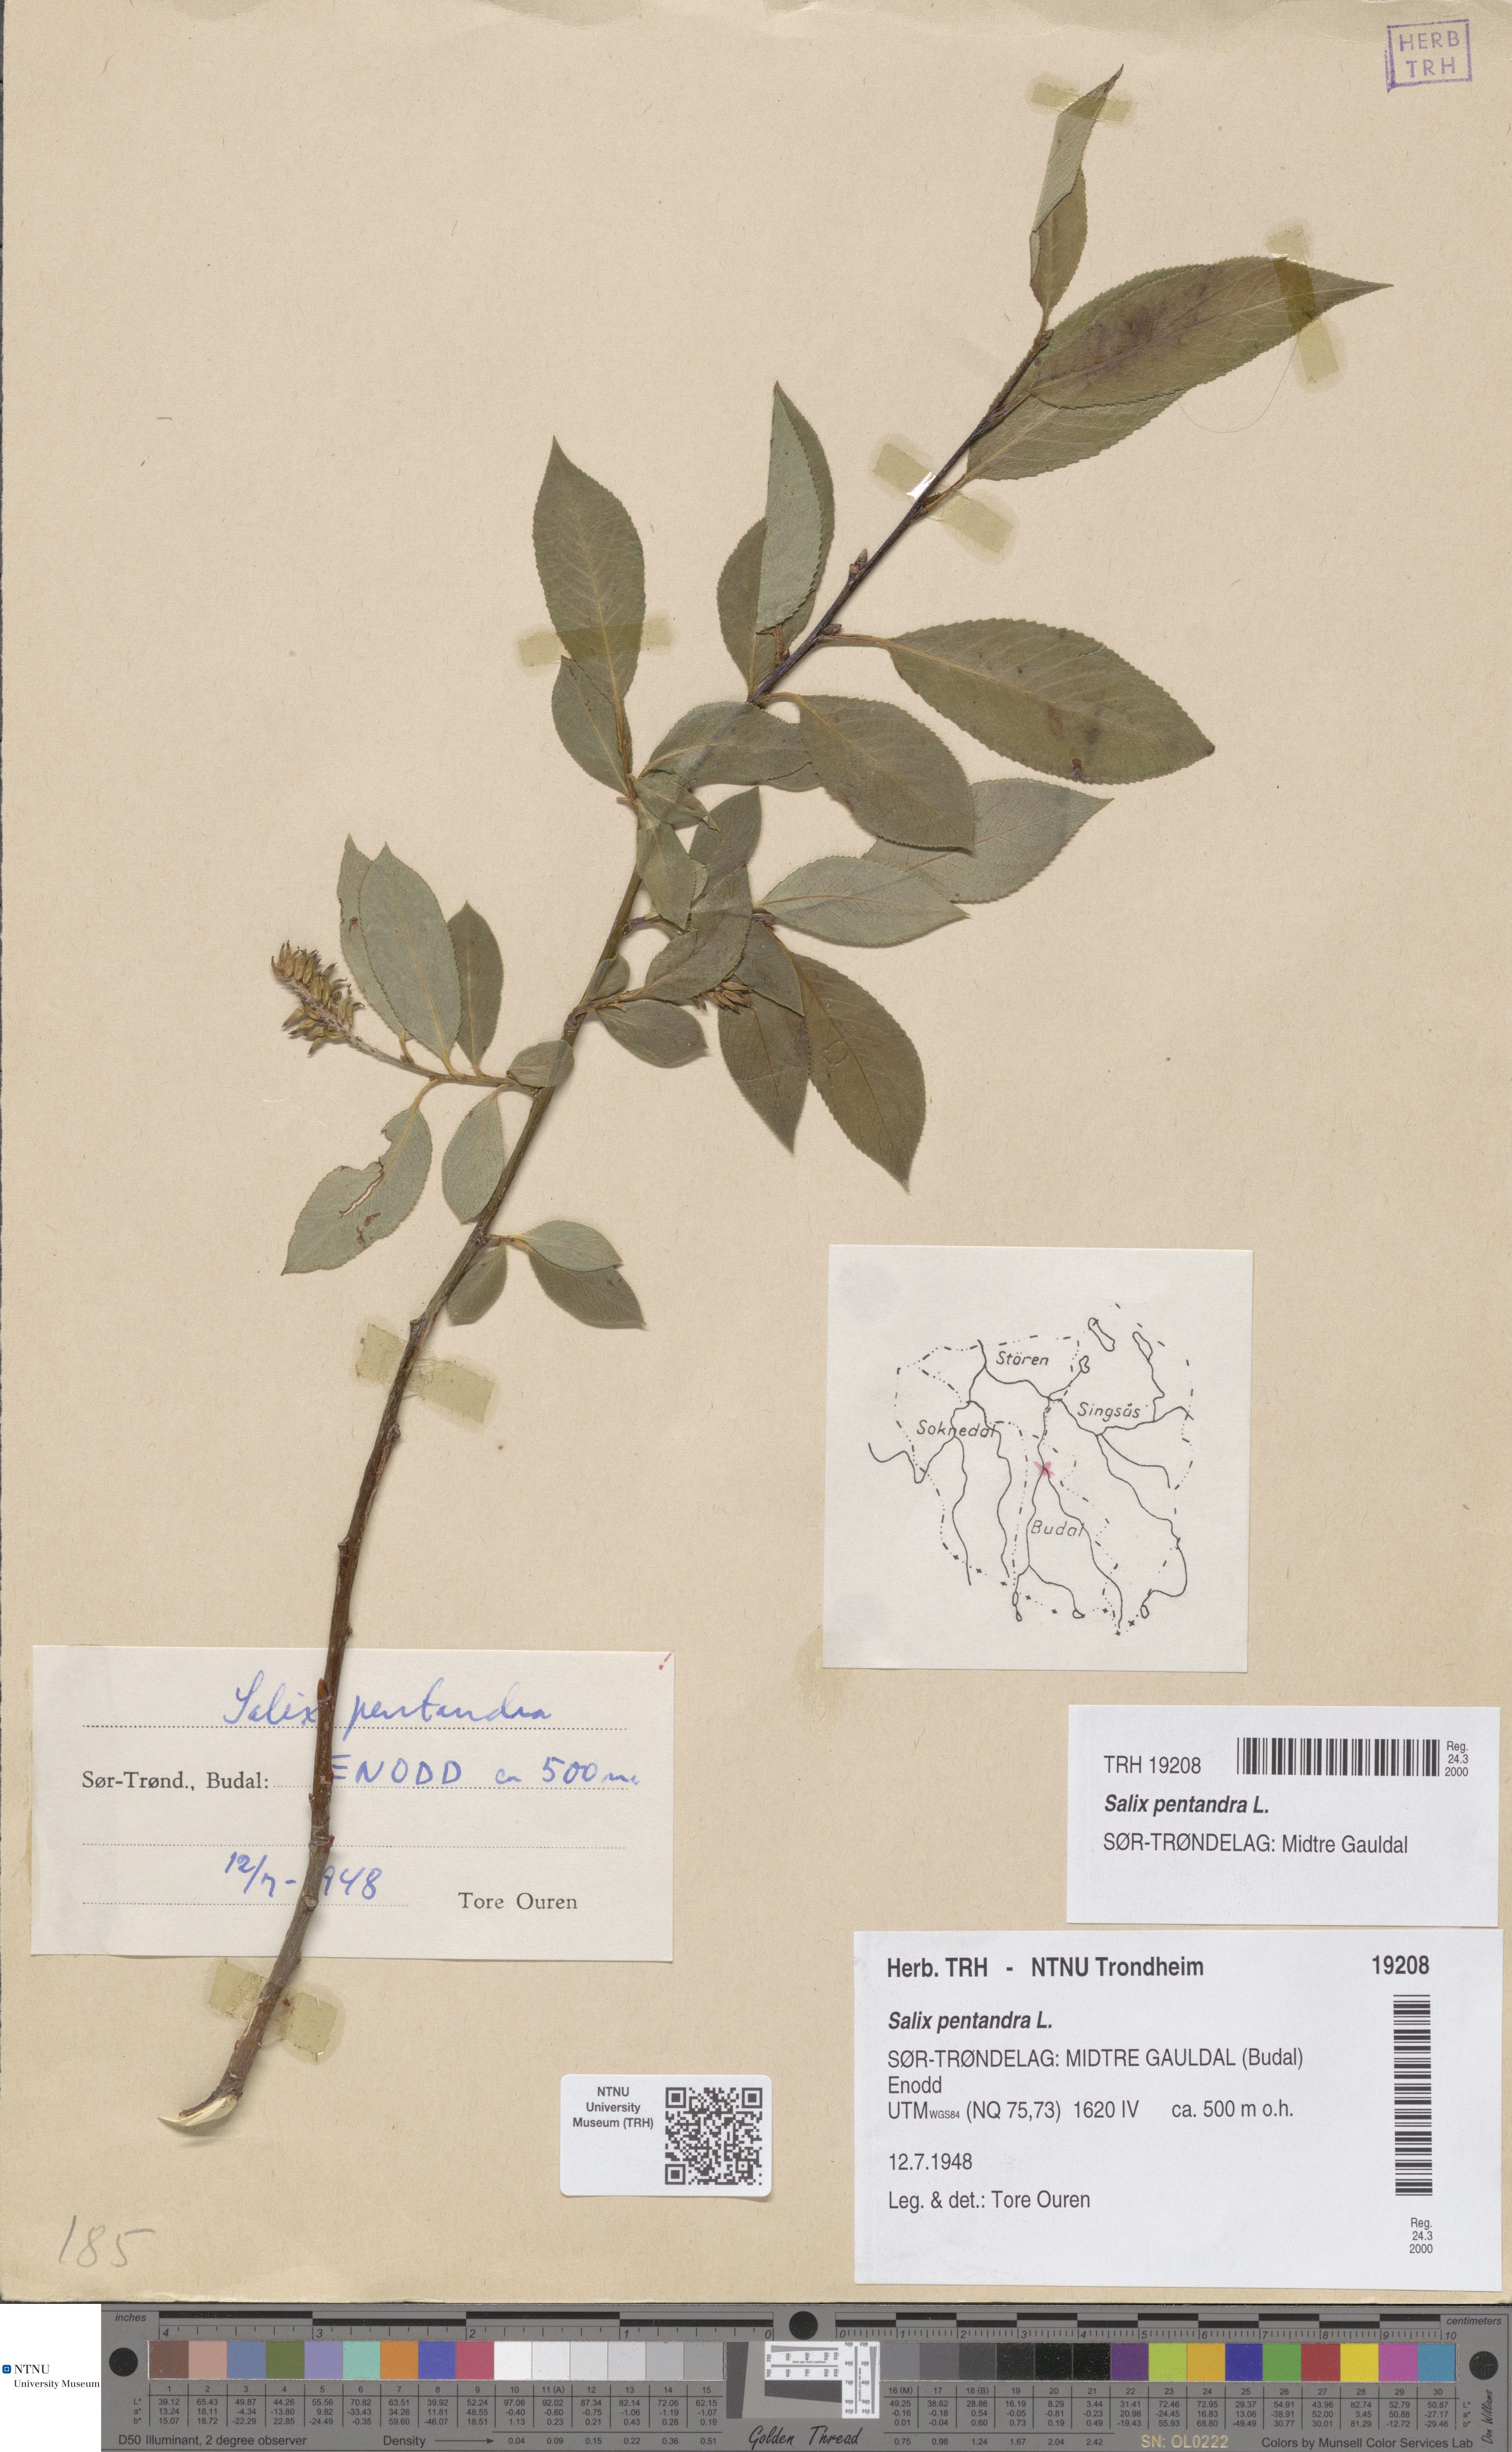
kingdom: Plantae
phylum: Tracheophyta
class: Magnoliopsida
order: Malpighiales
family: Salicaceae
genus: Salix
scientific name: Salix pentandra
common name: Bay willow
